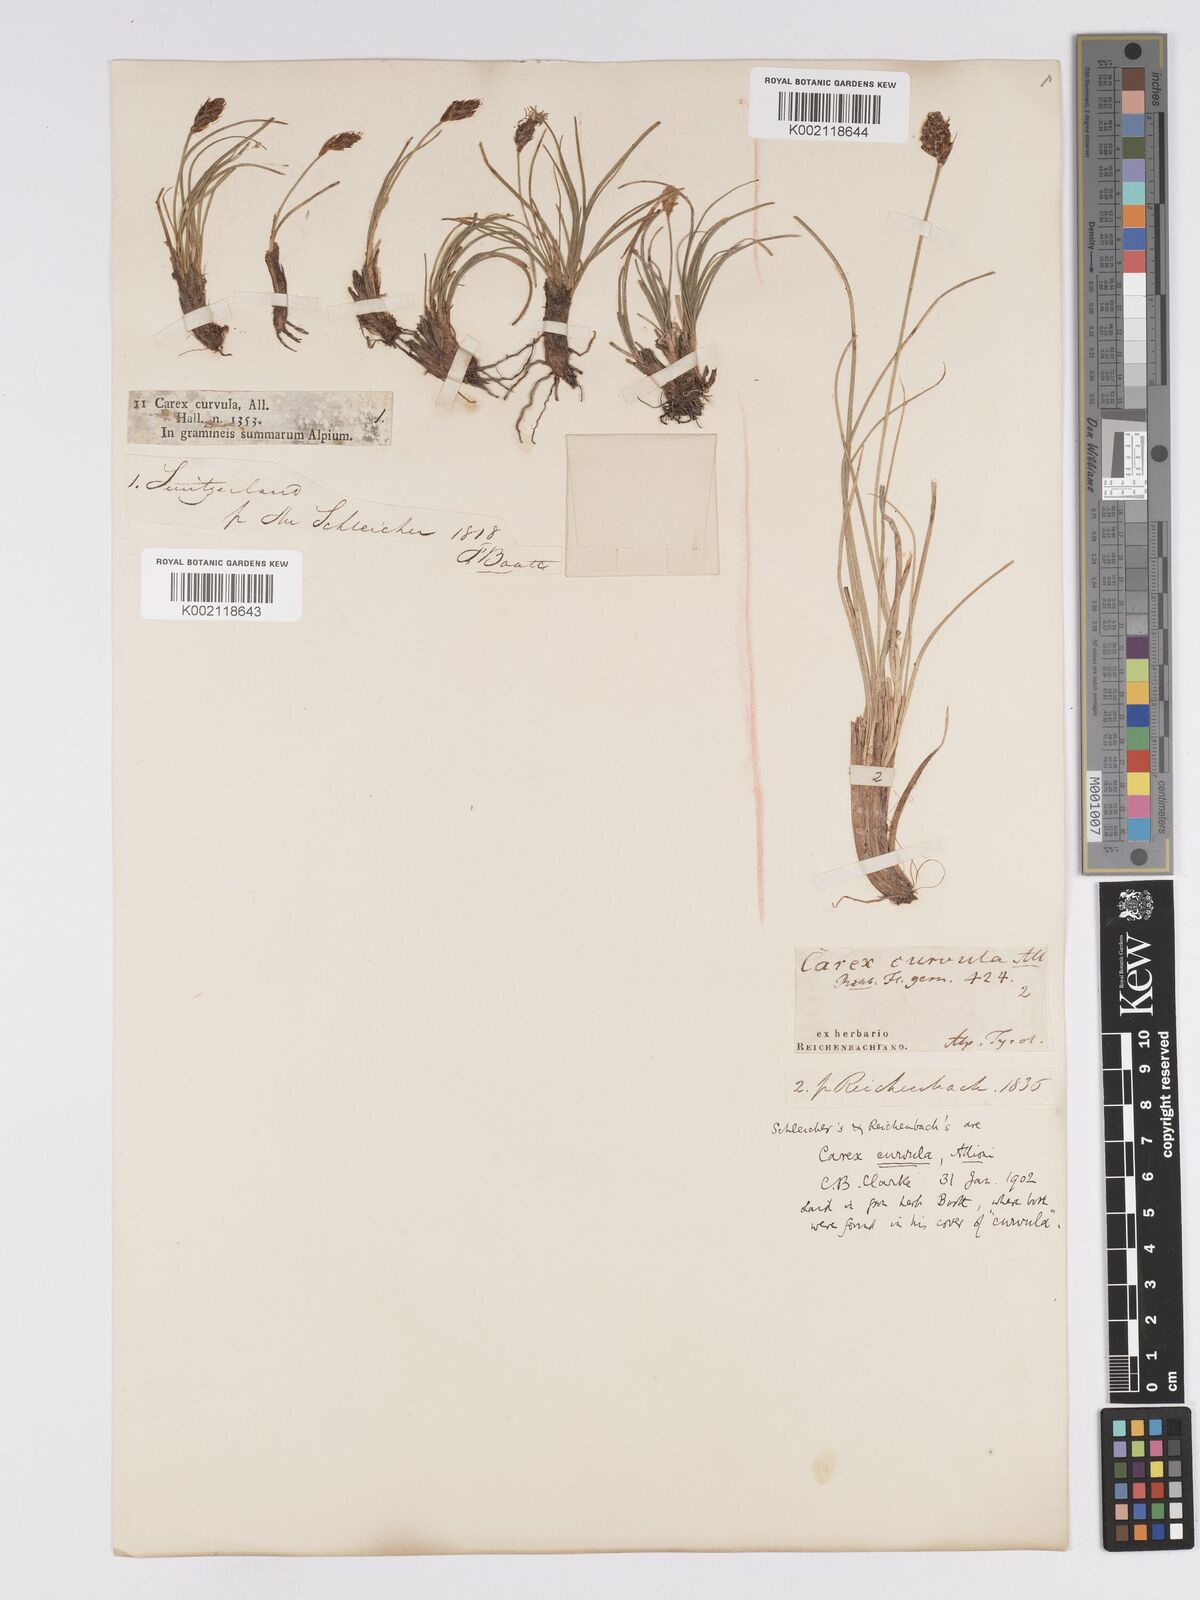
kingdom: Plantae
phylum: Tracheophyta
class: Liliopsida
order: Poales
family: Cyperaceae
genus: Carex
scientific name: Carex curvula
